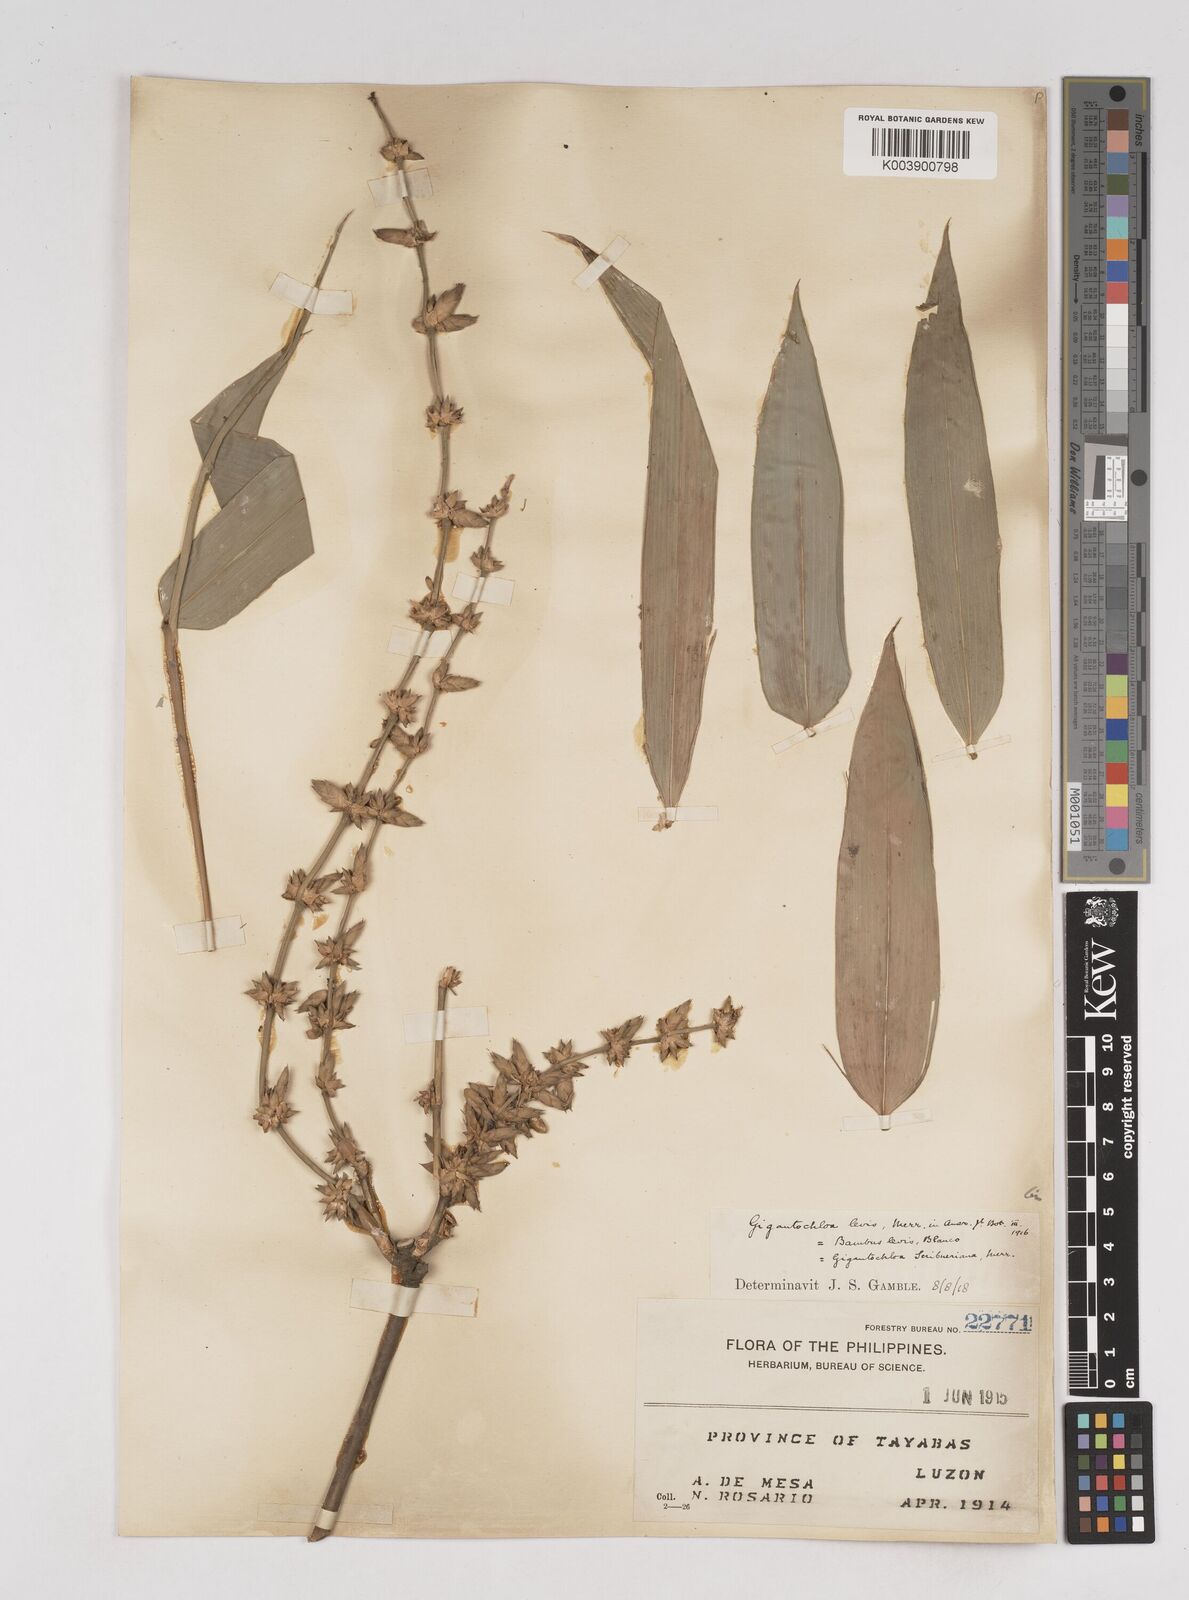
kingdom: Plantae
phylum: Tracheophyta
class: Liliopsida
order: Poales
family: Poaceae
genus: Gigantochloa
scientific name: Gigantochloa levis
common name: Smooth-shoot gigantochloa
